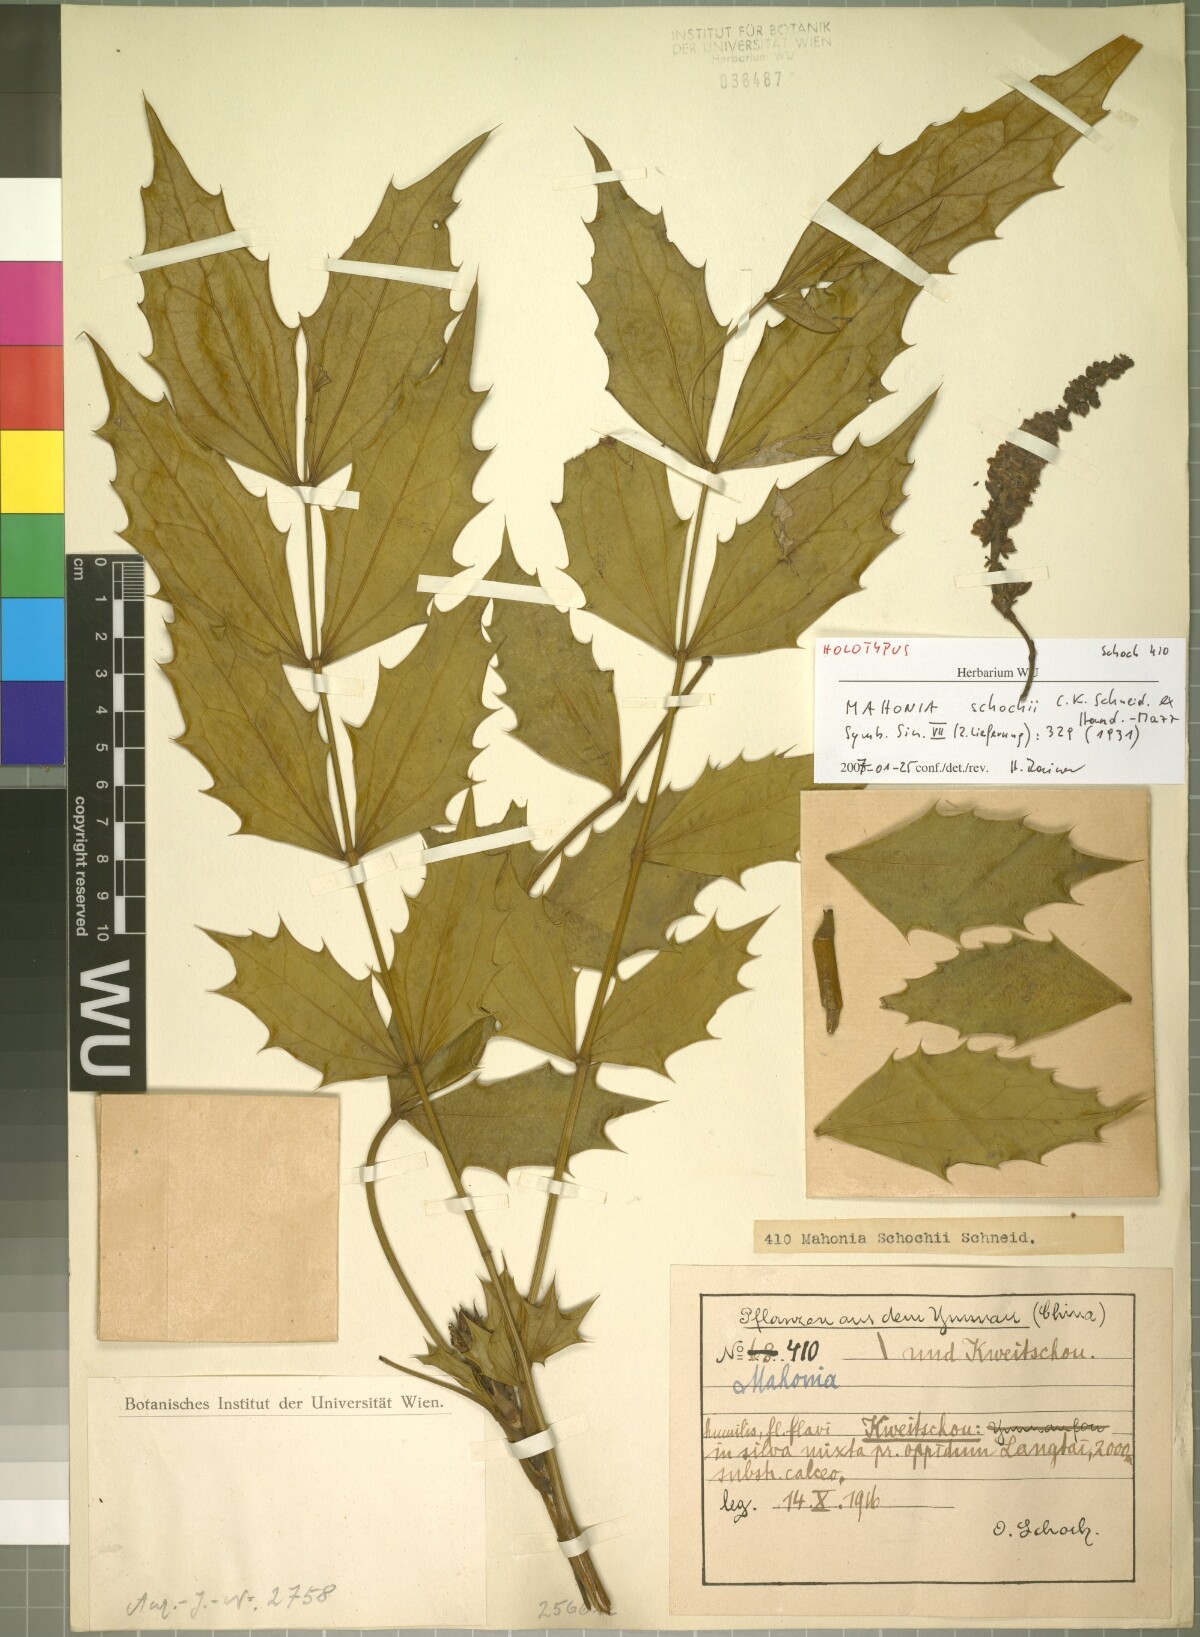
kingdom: Plantae
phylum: Tracheophyta
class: Magnoliopsida
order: Ranunculales
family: Berberidaceae
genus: Mahonia
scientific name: Mahonia schochii
